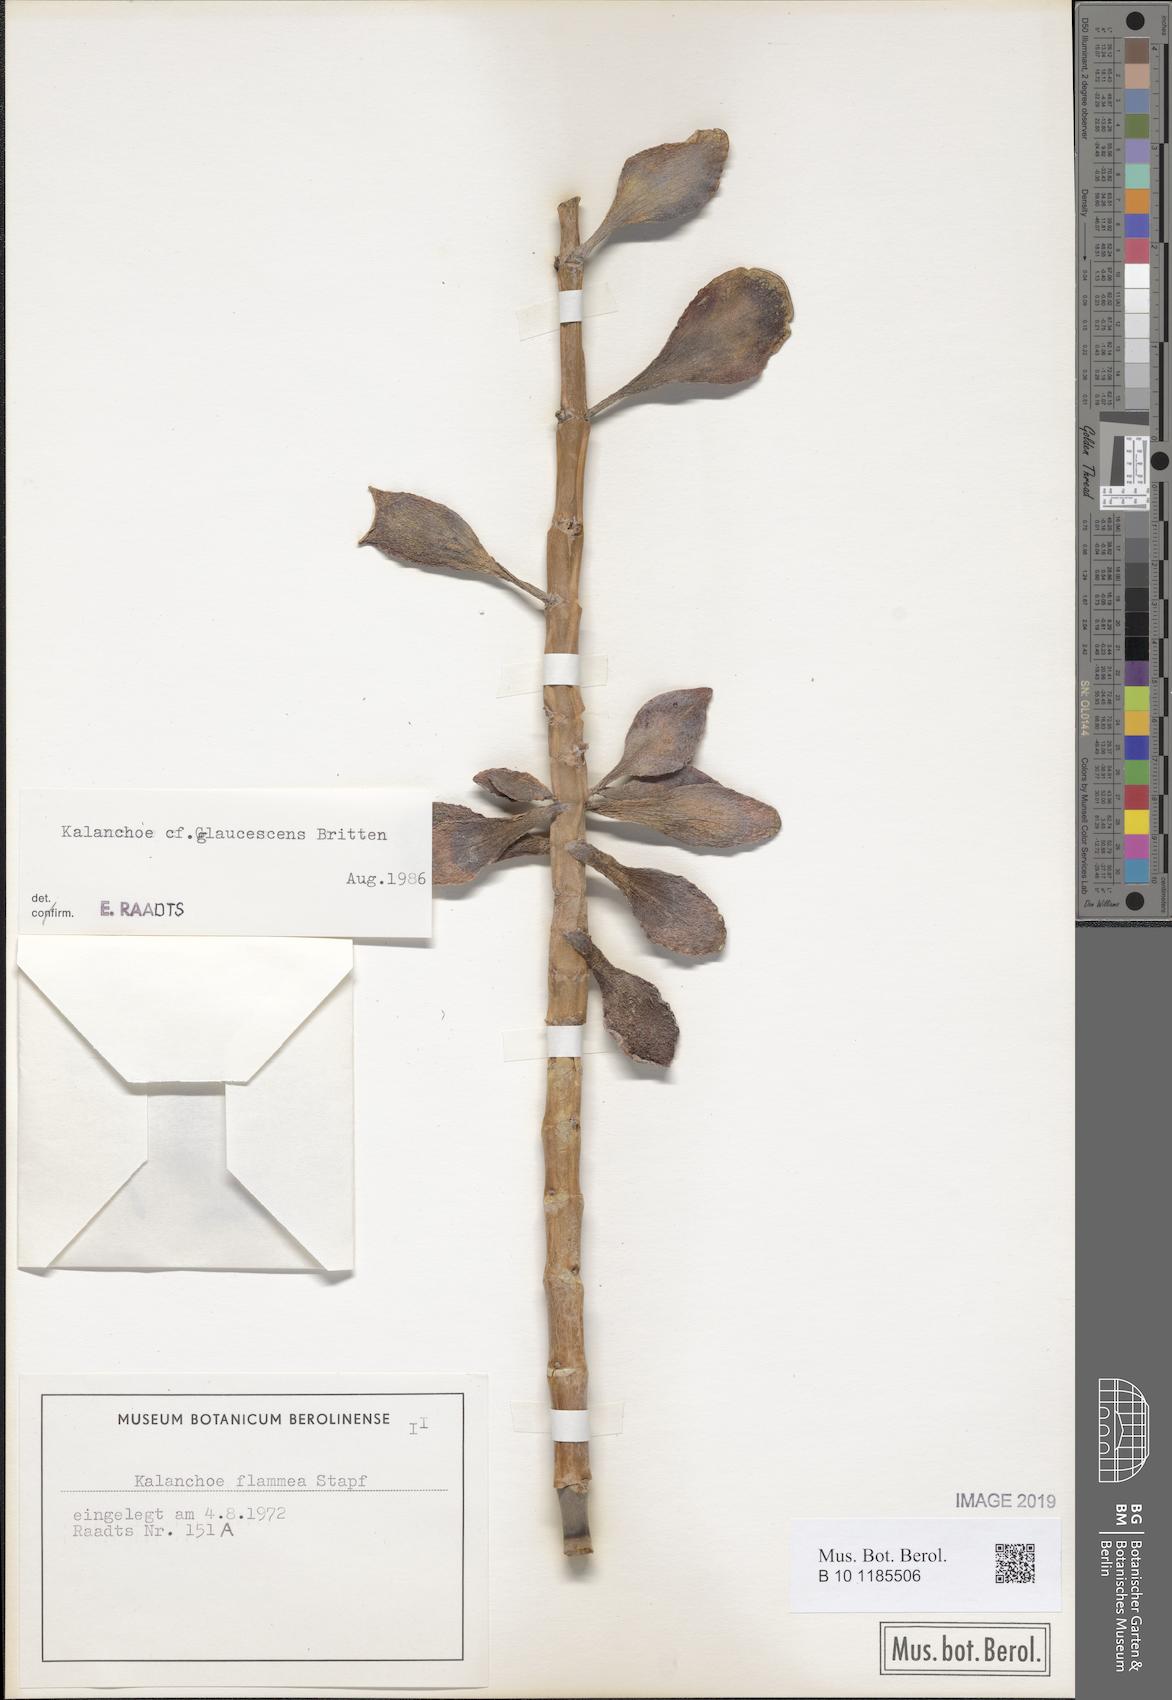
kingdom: Plantae
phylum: Tracheophyta
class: Magnoliopsida
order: Saxifragales
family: Crassulaceae
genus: Kalanchoe
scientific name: Kalanchoe glaucescens
